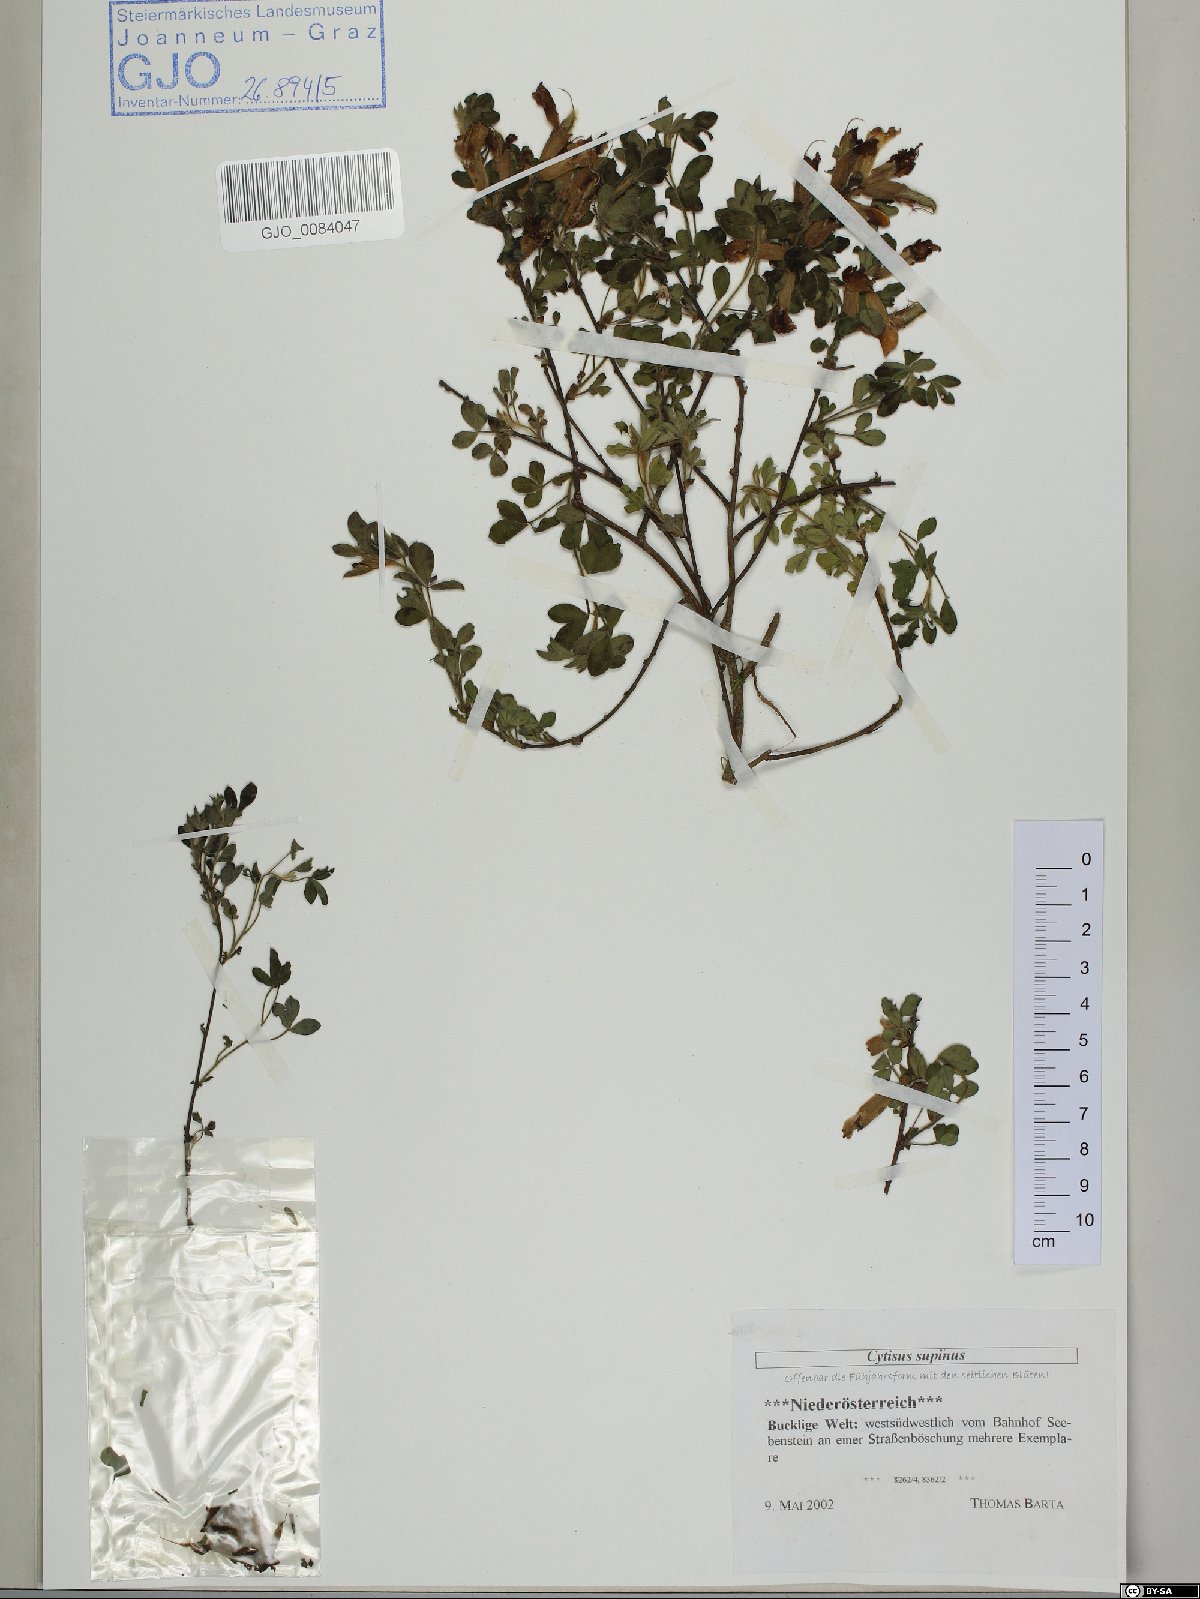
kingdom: Plantae
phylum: Tracheophyta
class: Magnoliopsida
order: Fabales
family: Fabaceae
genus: Chamaecytisus
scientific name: Chamaecytisus supinus
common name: Clustered broom
